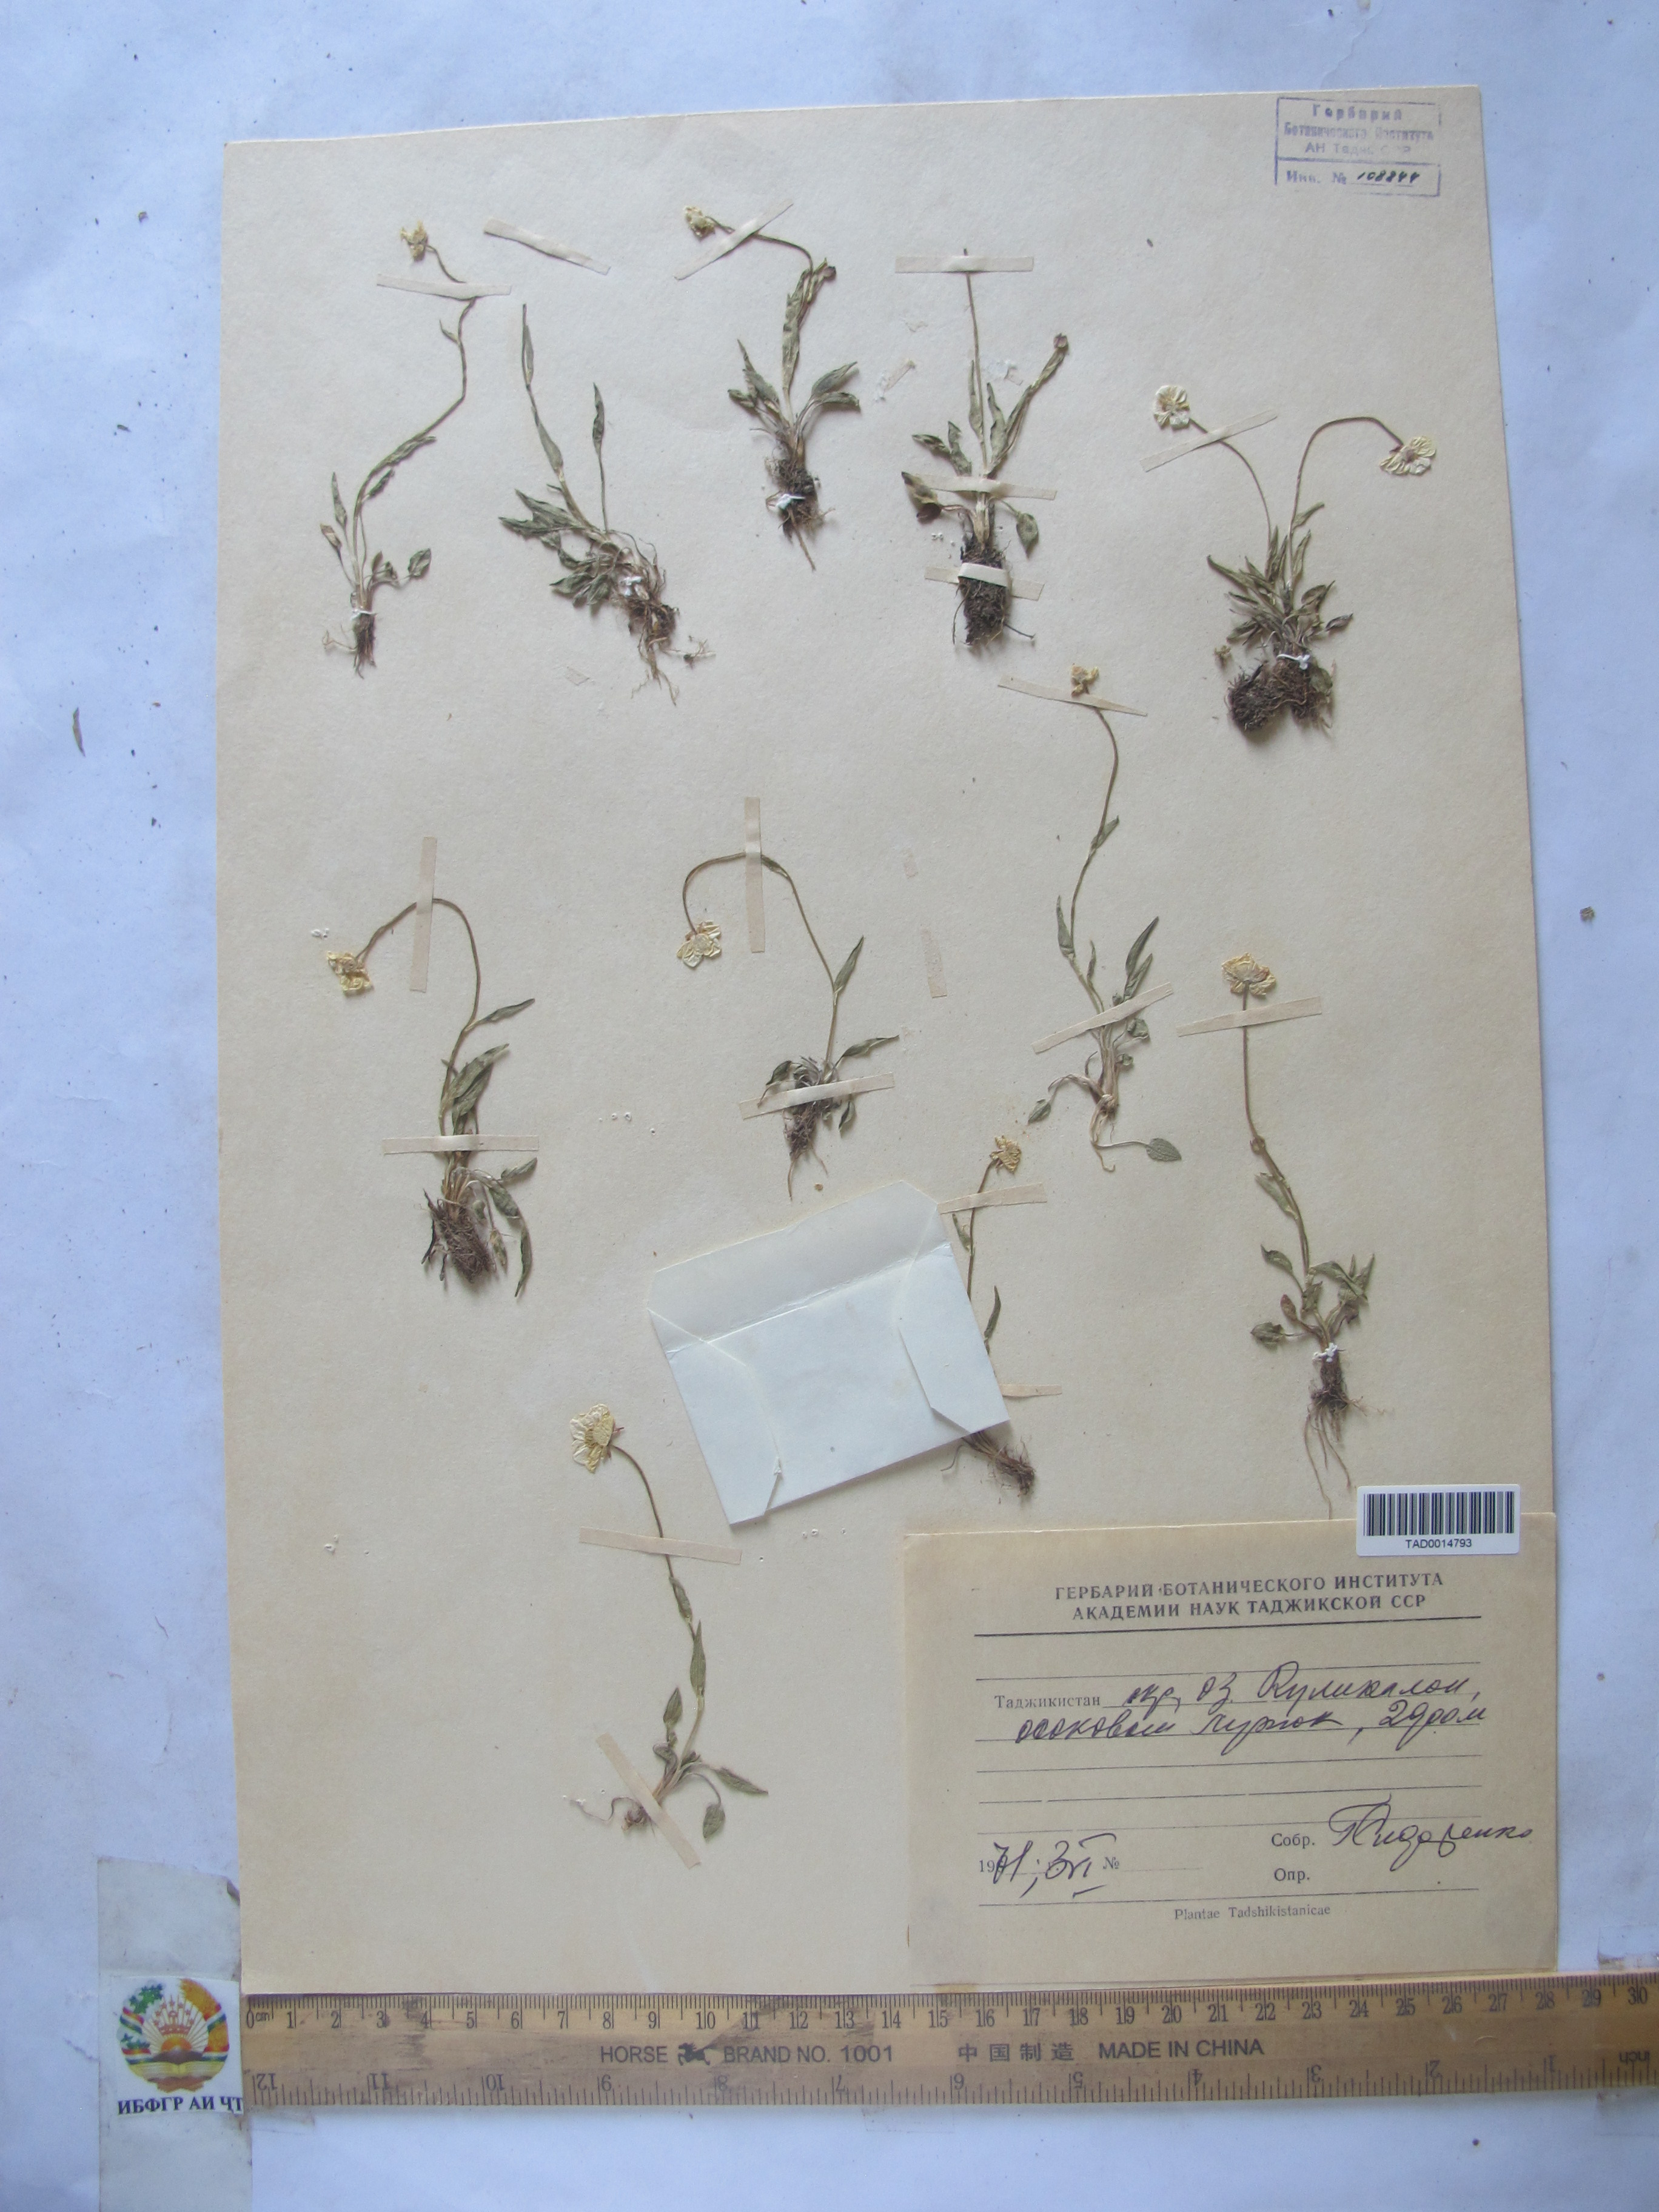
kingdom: Plantae
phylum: Tracheophyta
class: Magnoliopsida
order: Ranunculales
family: Ranunculaceae
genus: Ranunculus
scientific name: Ranunculus pinnatisectus
